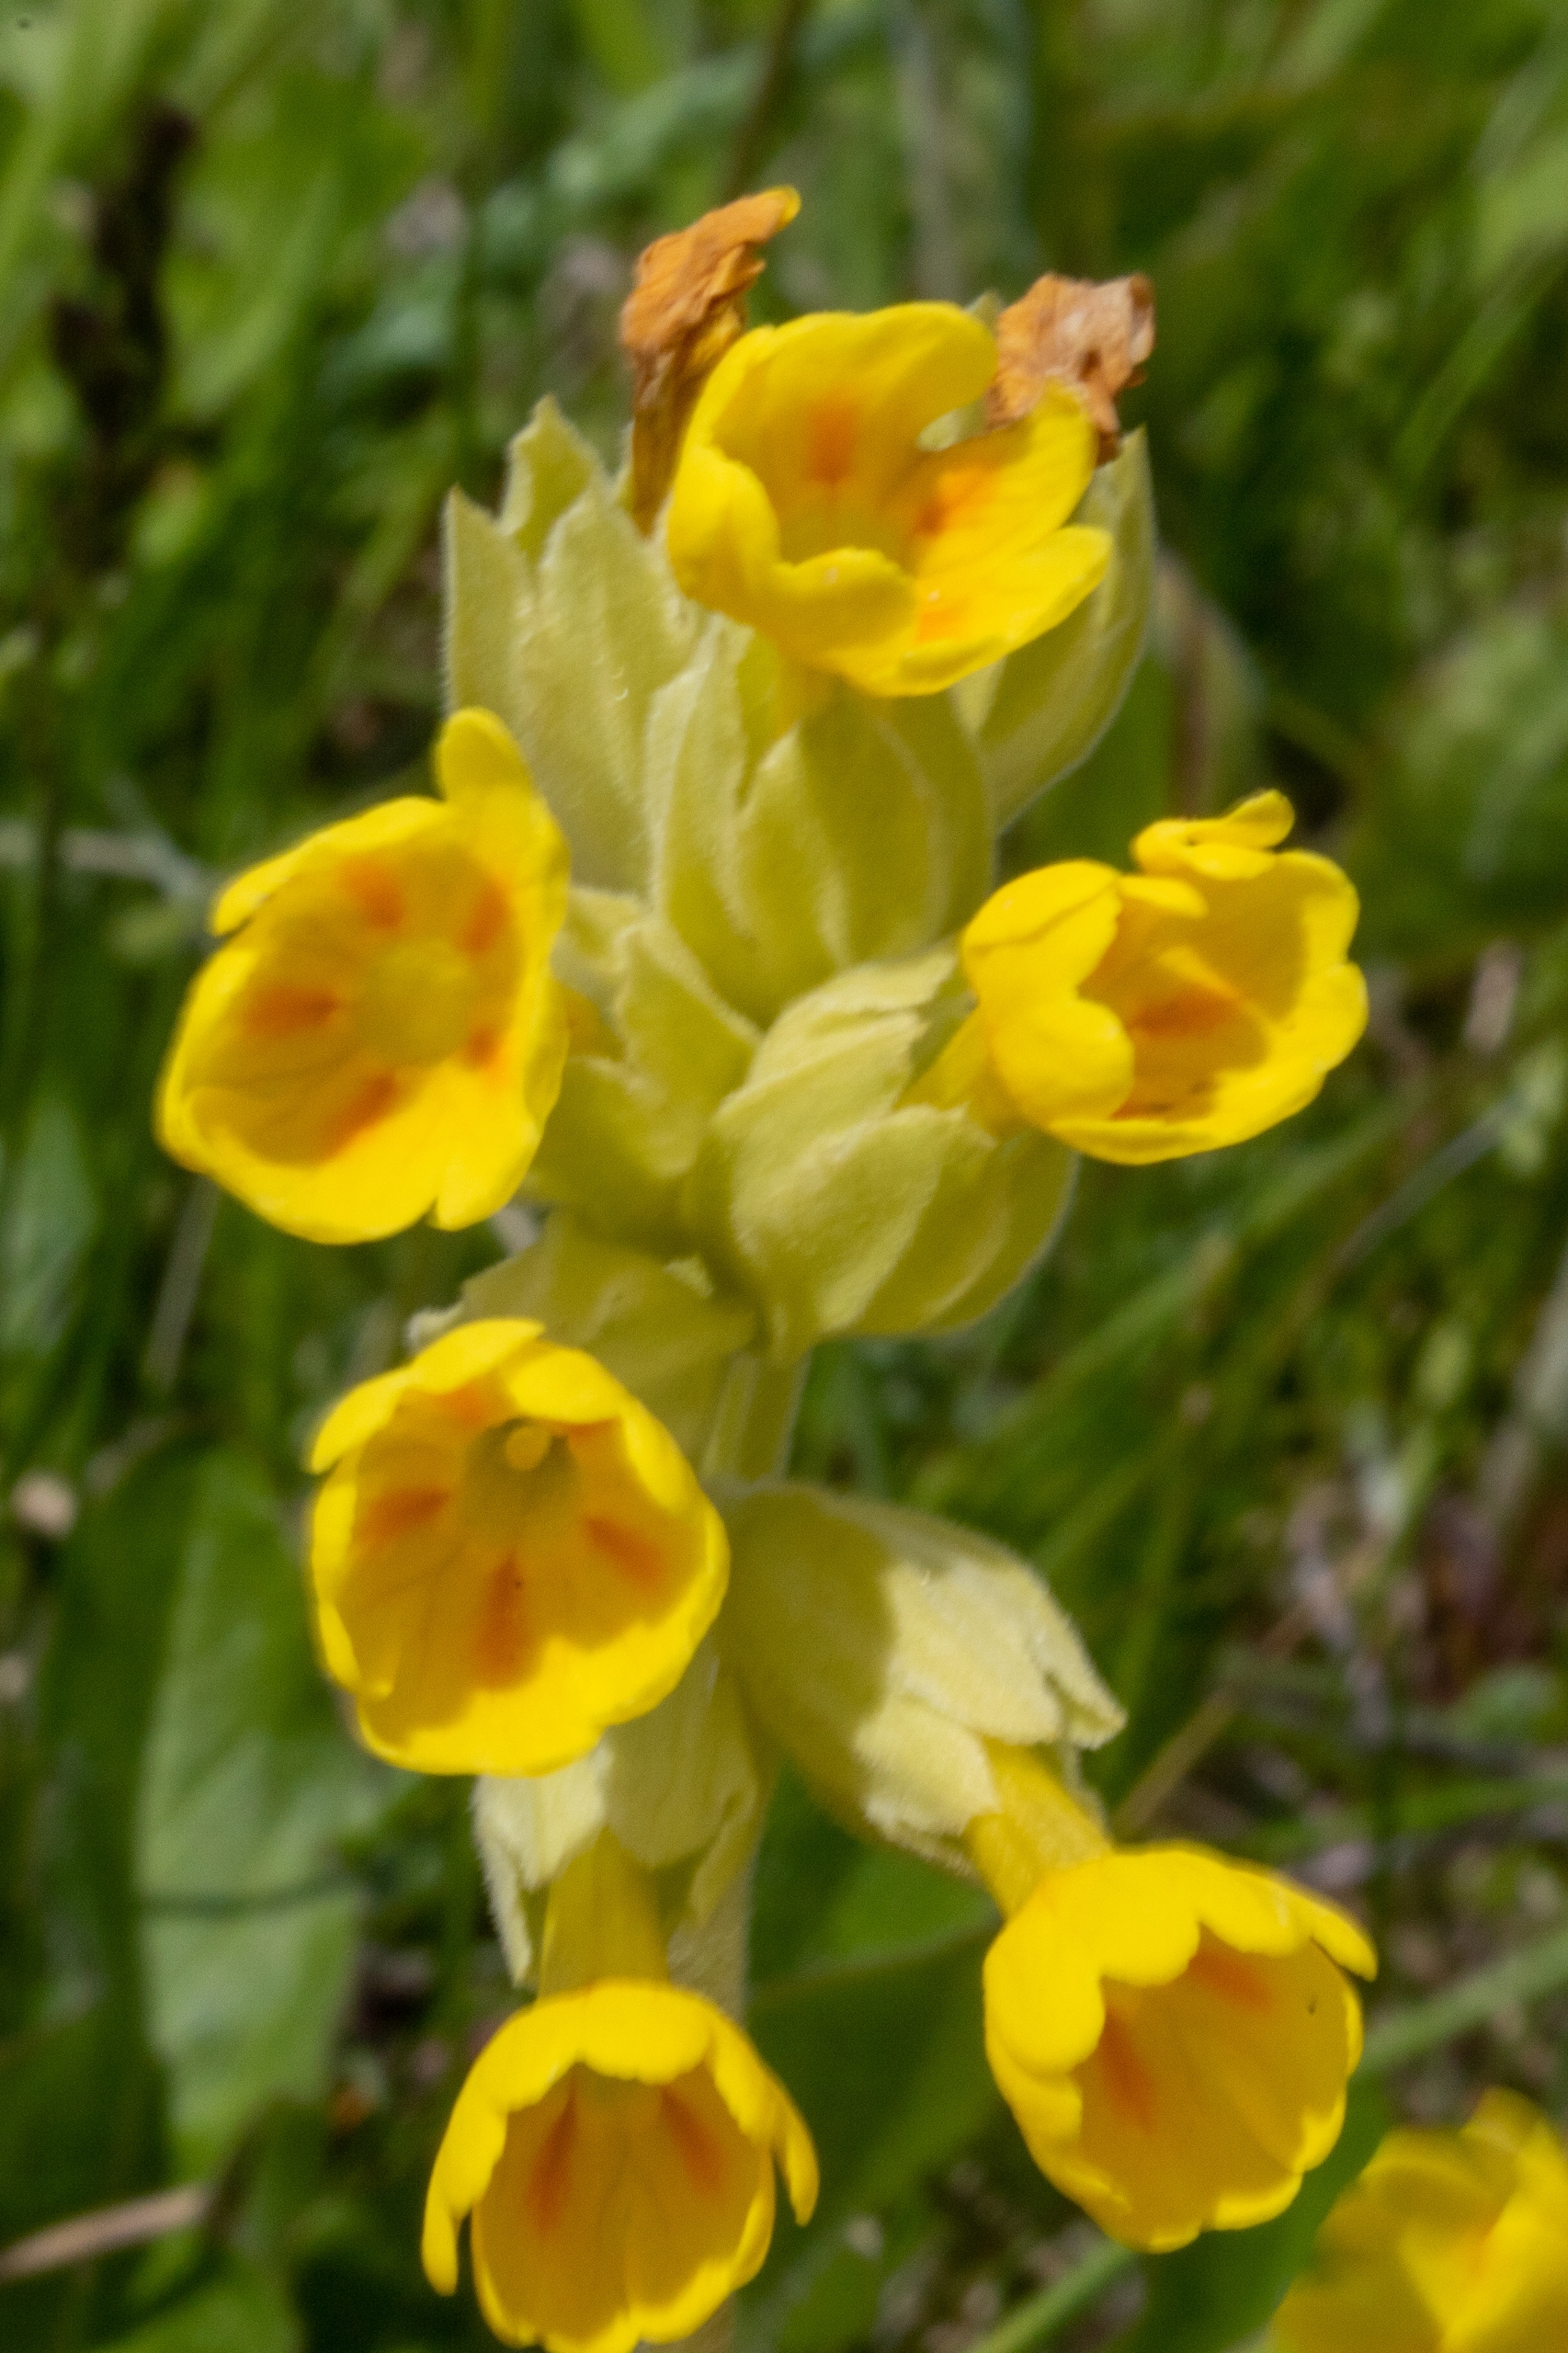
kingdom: Plantae
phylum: Tracheophyta
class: Magnoliopsida
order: Ericales
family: Primulaceae
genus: Primula
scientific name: Primula veris
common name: Hulkravet kodriver
